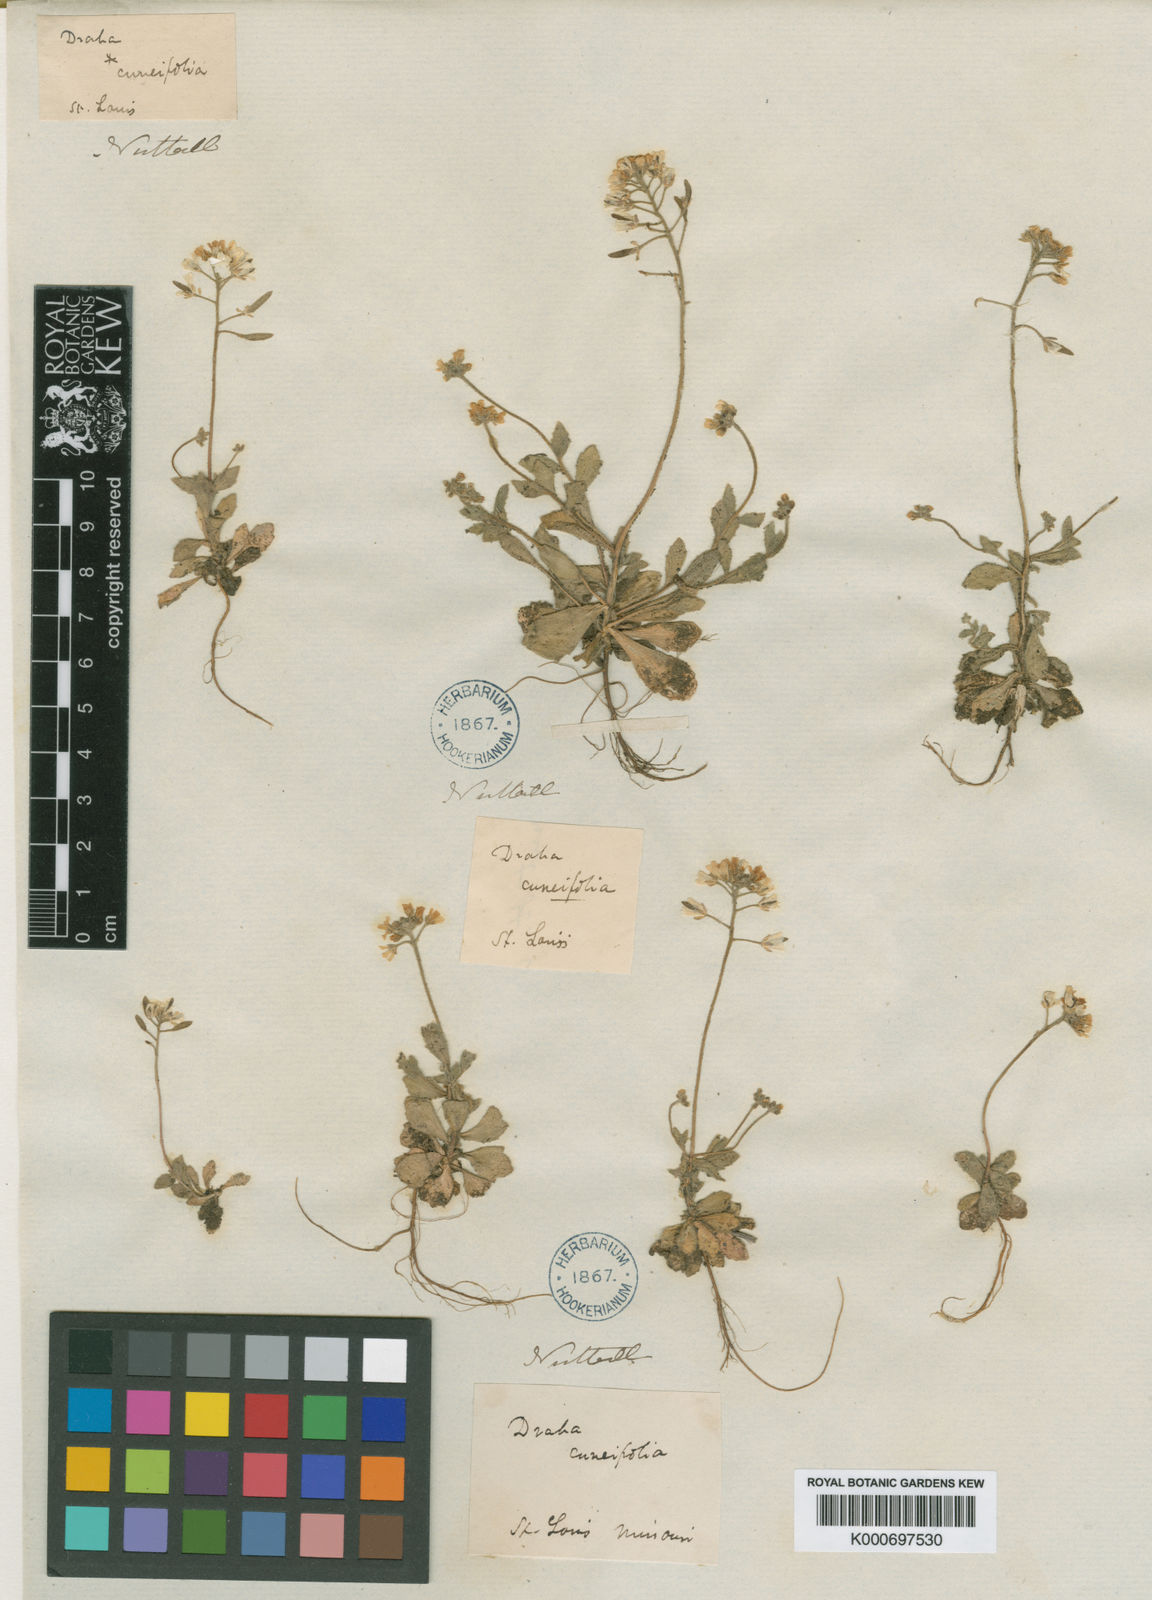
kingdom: Plantae
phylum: Tracheophyta
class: Magnoliopsida
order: Brassicales
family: Brassicaceae
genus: Tomostima
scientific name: Tomostima reptans
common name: Carolina draba
